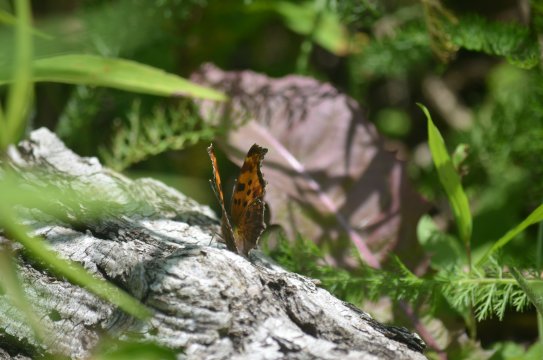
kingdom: Animalia
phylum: Arthropoda
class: Insecta
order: Lepidoptera
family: Nymphalidae
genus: Polygonia
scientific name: Polygonia comma
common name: Eastern Comma
